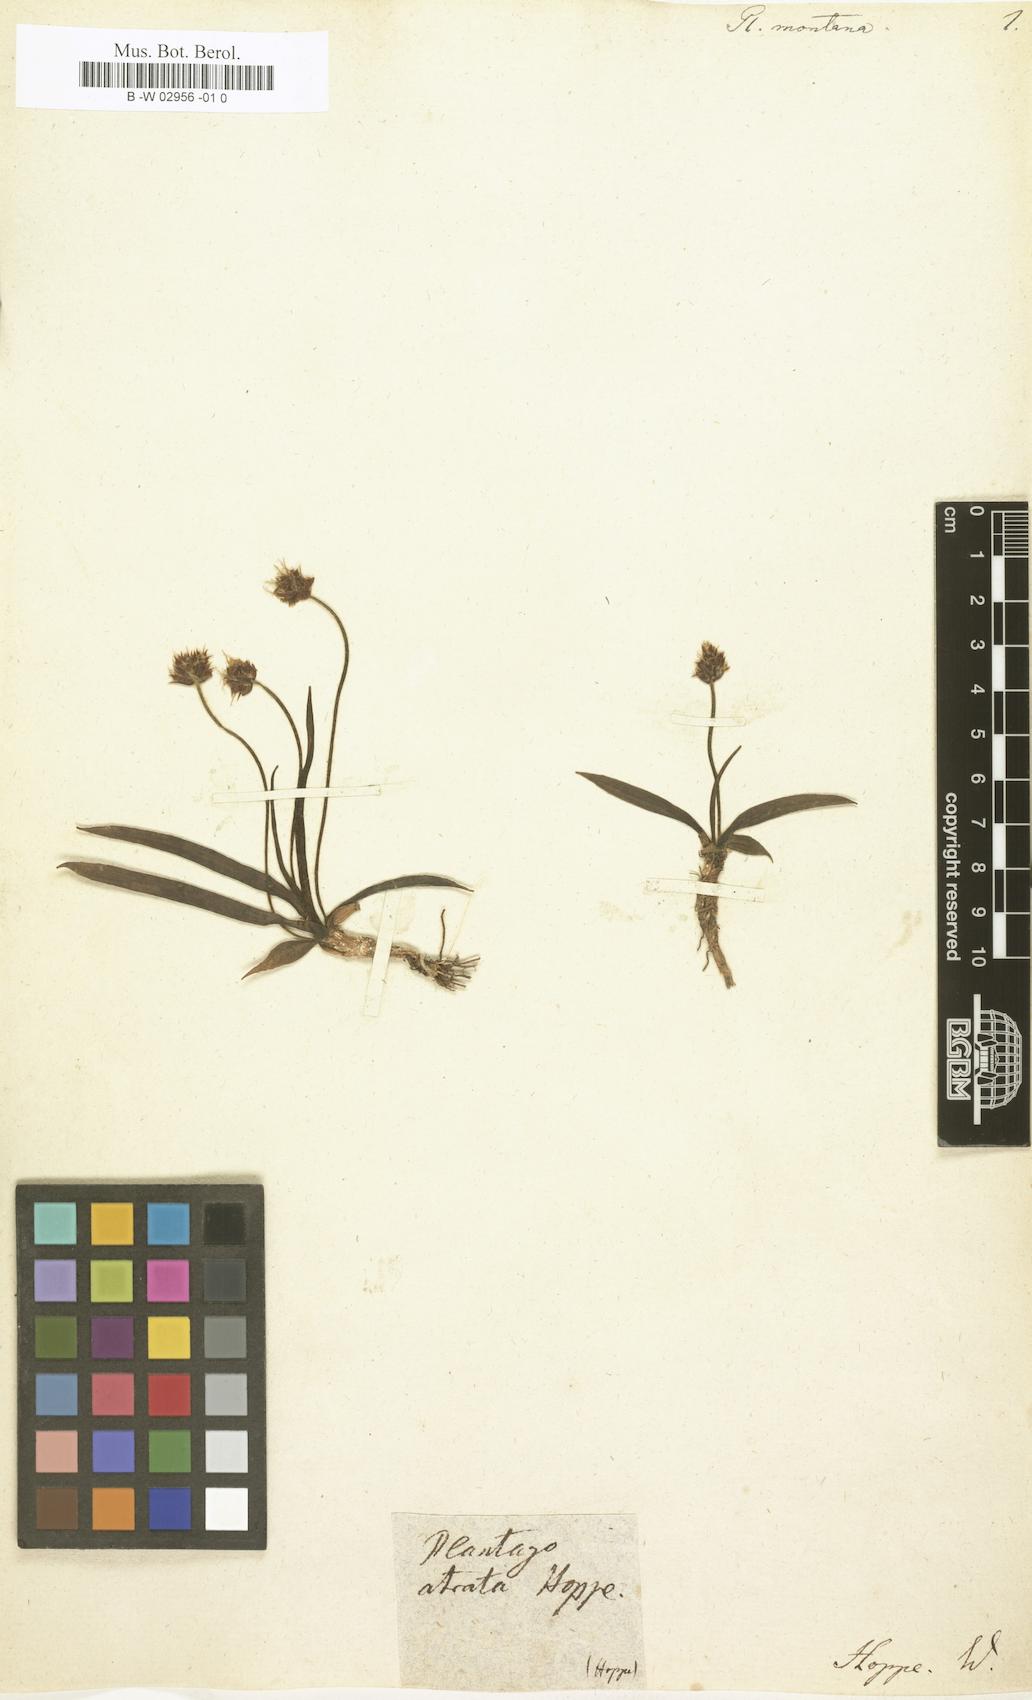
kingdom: Plantae
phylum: Tracheophyta
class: Magnoliopsida
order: Lamiales
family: Plantaginaceae
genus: Plantago
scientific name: Plantago atrata
